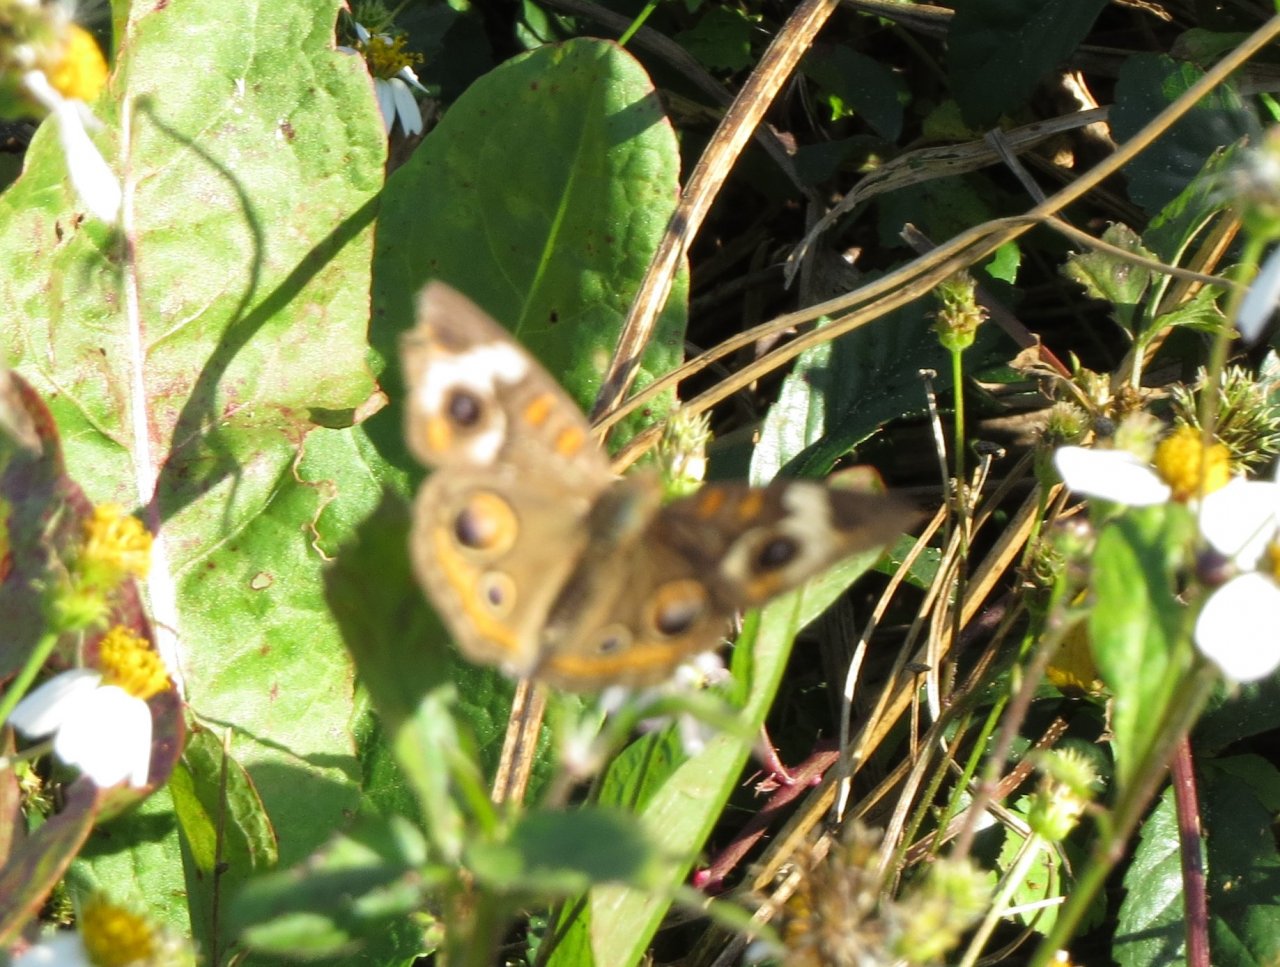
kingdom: Animalia
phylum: Arthropoda
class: Insecta
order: Lepidoptera
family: Nymphalidae
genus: Junonia
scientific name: Junonia coenia
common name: Common Buckeye
